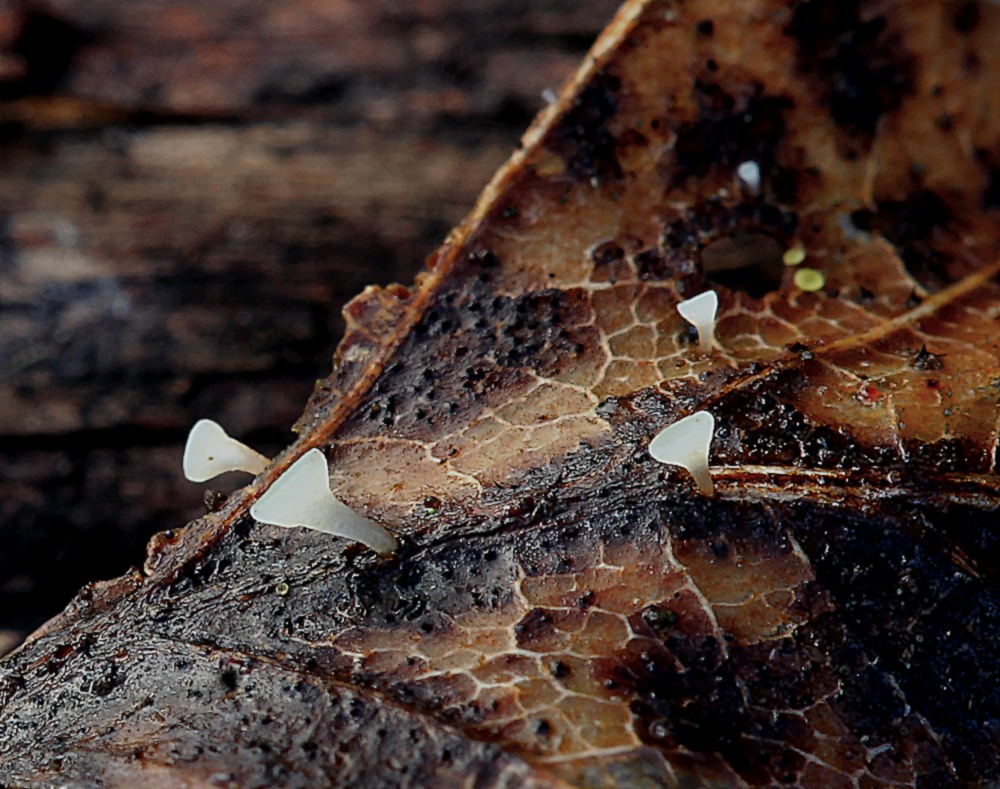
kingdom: Fungi
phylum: Ascomycota
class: Leotiomycetes
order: Helotiales
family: Helotiaceae
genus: Hymenoscyphus
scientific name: Hymenoscyphus caudatus
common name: blad-stilkskive
